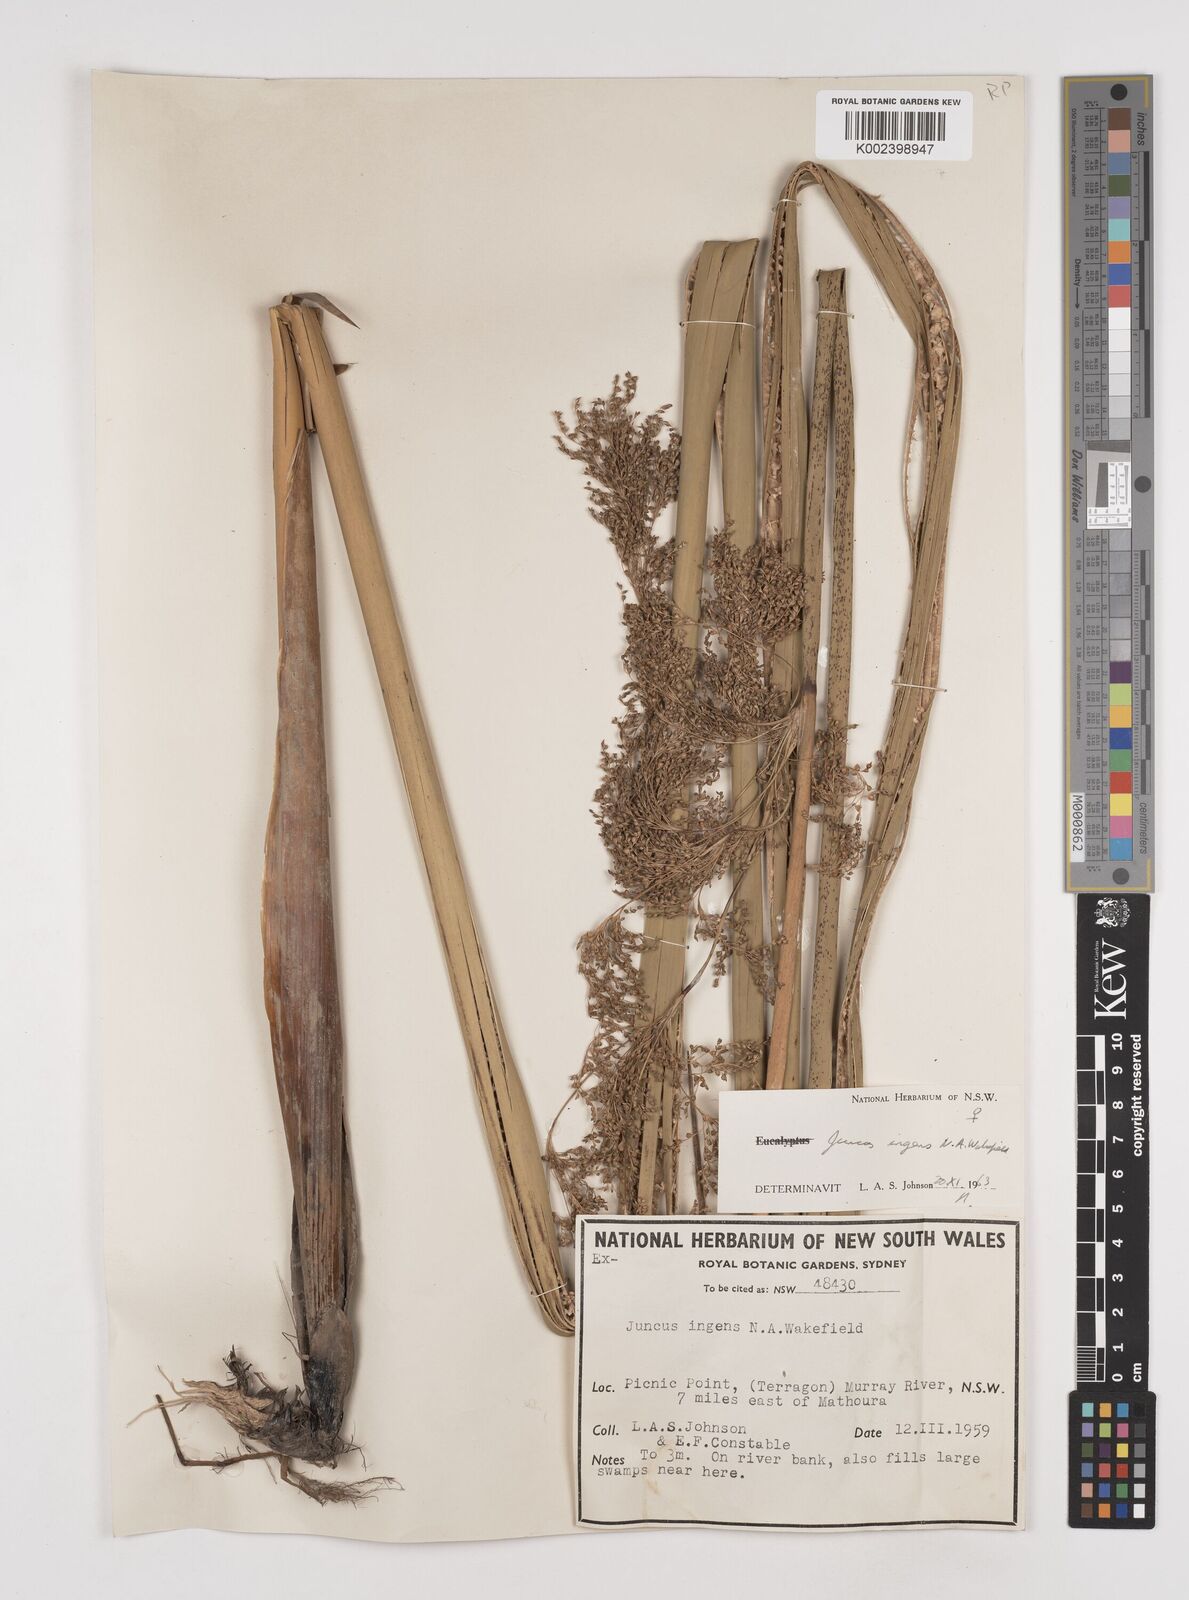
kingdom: Plantae
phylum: Tracheophyta
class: Liliopsida
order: Poales
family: Juncaceae
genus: Juncus
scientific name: Juncus
